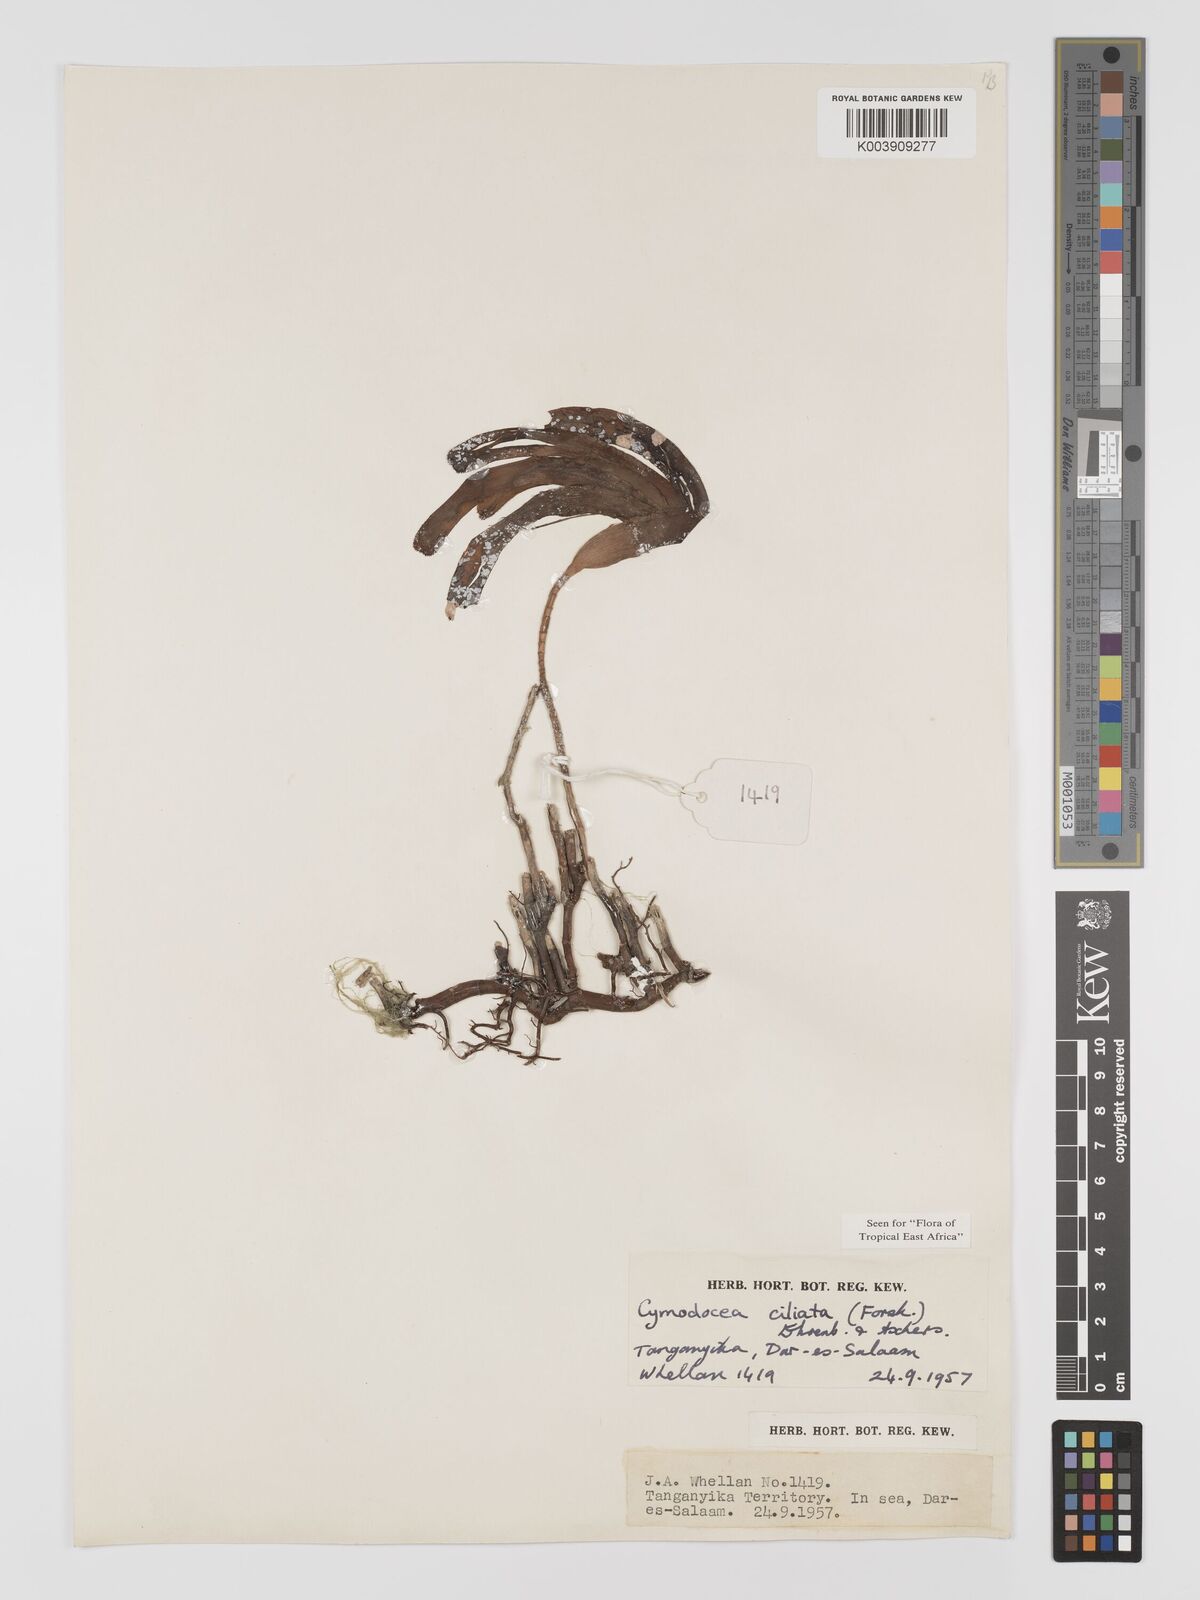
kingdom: Plantae
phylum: Tracheophyta
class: Liliopsida
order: Alismatales
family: Cymodoceaceae
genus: Thalassodendron
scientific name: Thalassodendron ciliatum
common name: Species code: tc
